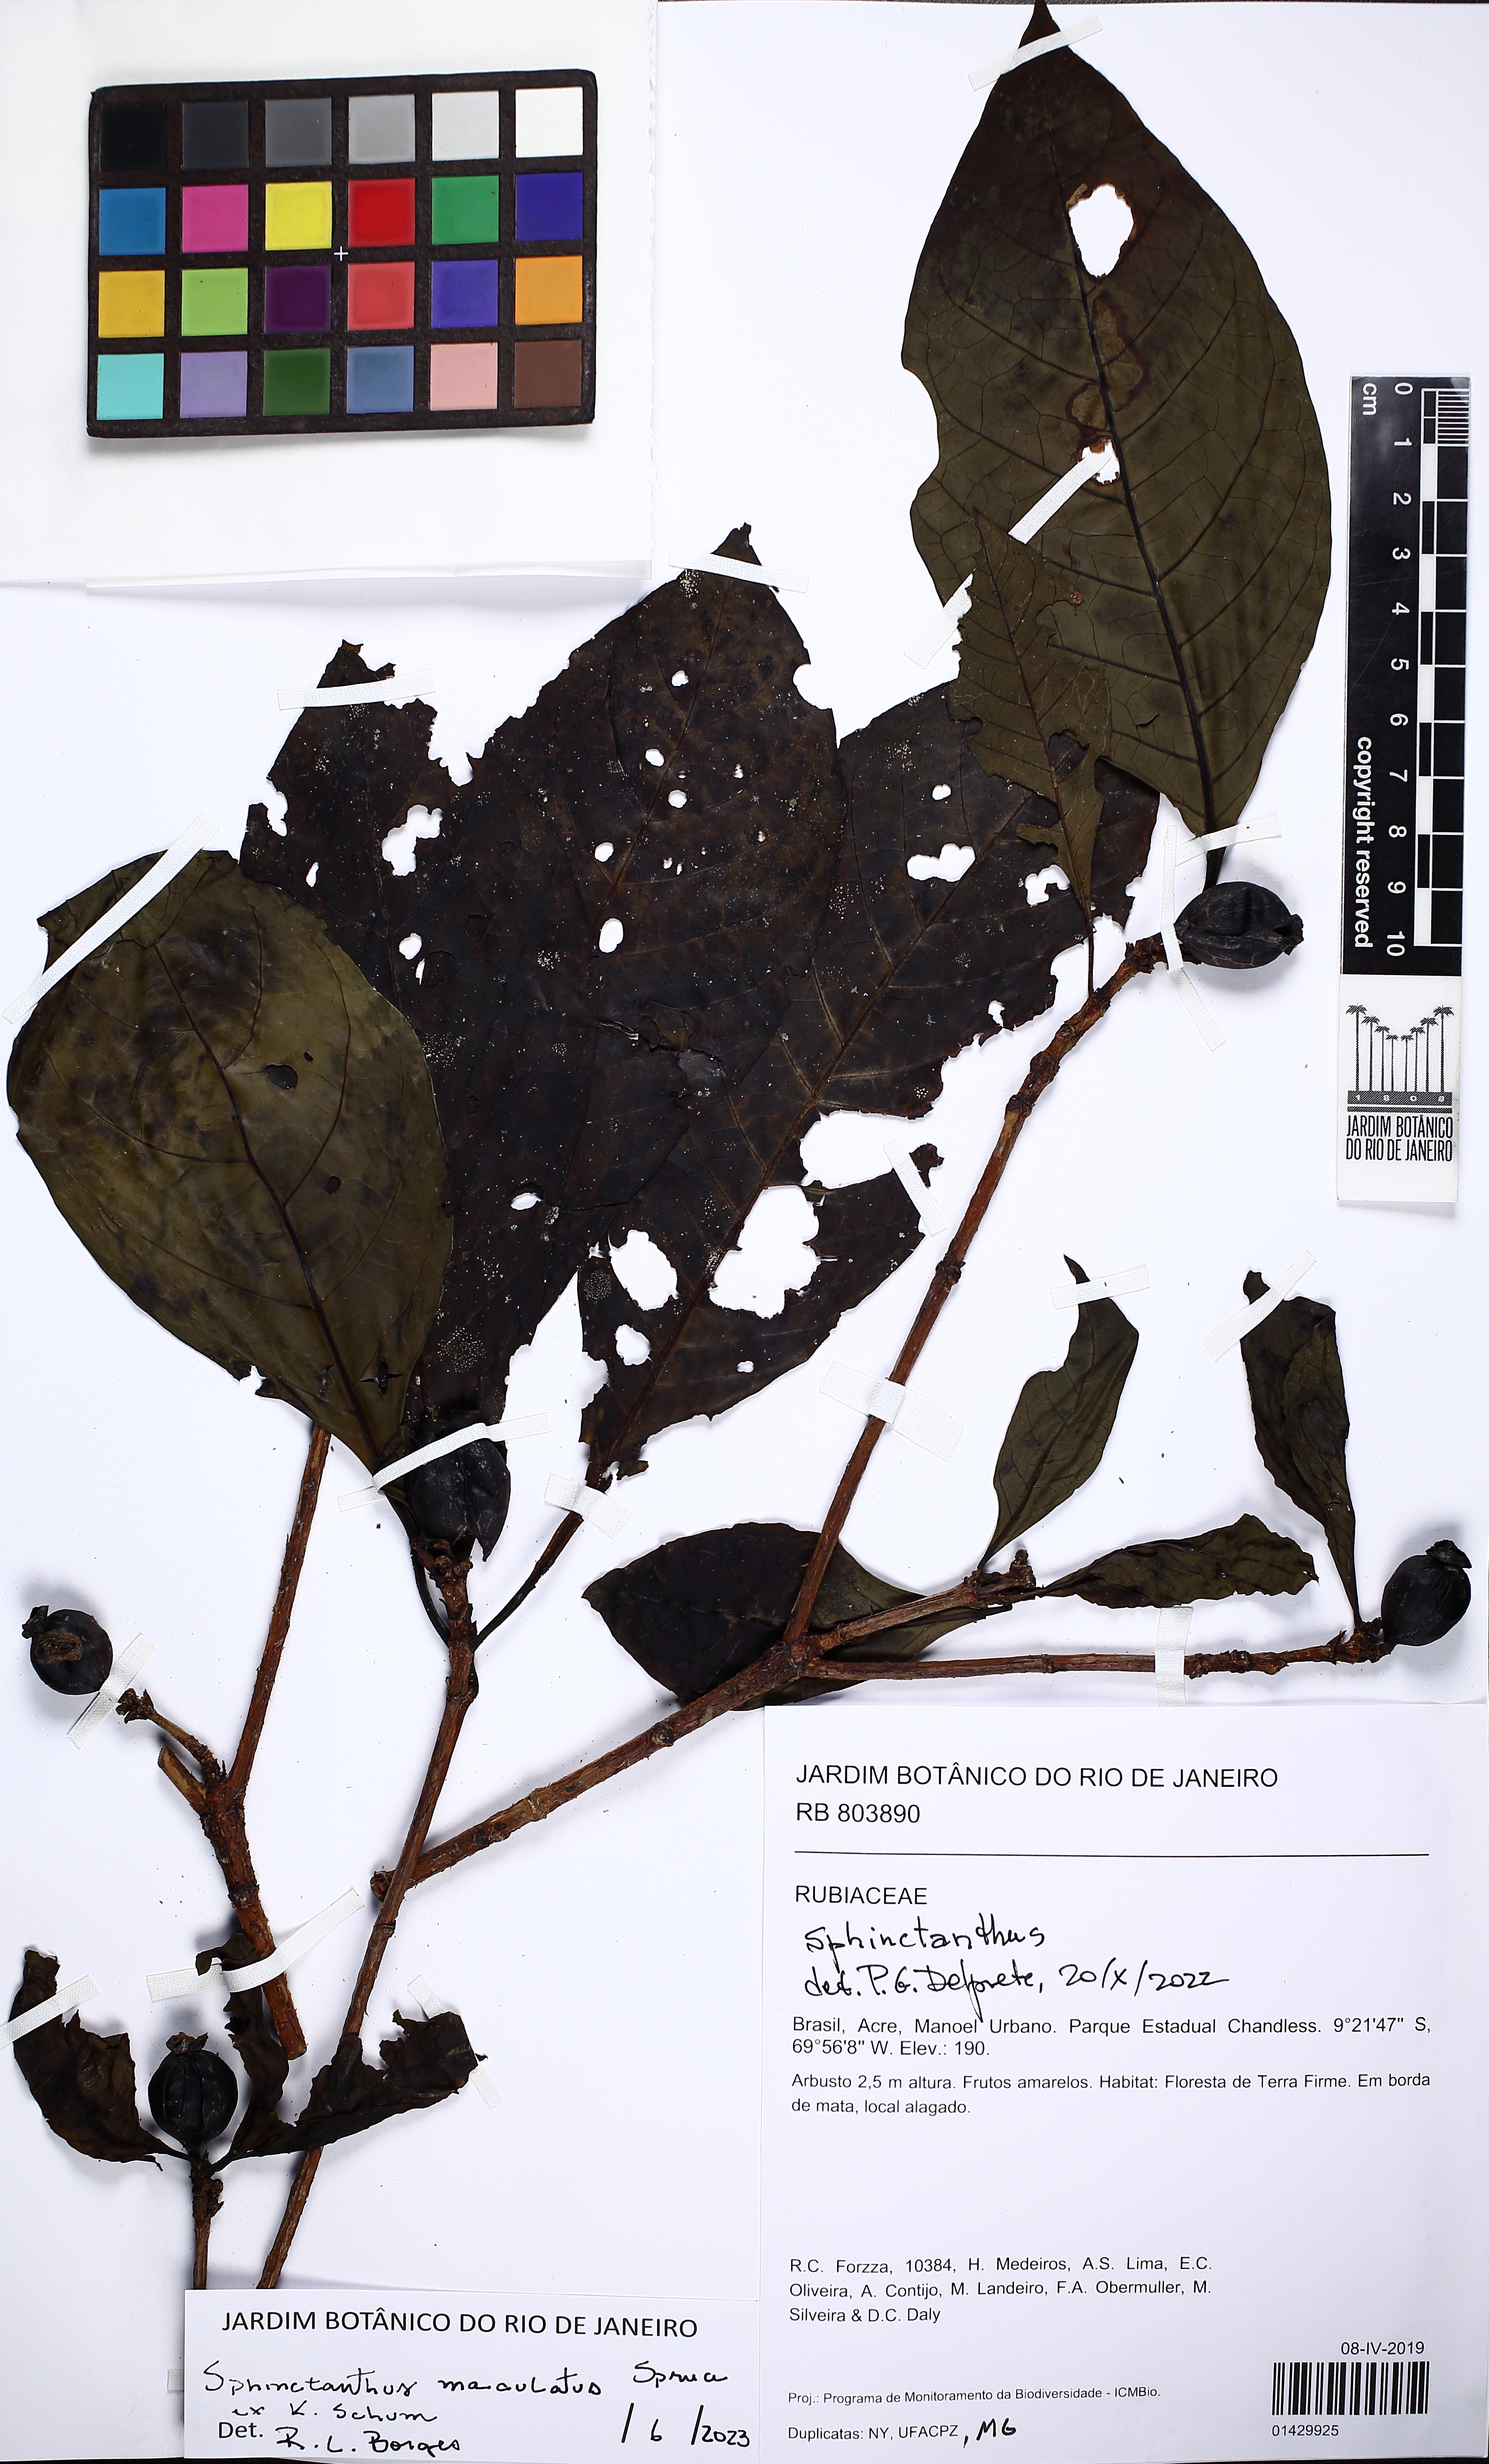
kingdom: Plantae
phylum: Tracheophyta
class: Magnoliopsida
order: Gentianales
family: Rubiaceae
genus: Sphinctanthus
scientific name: Sphinctanthus maculatus
